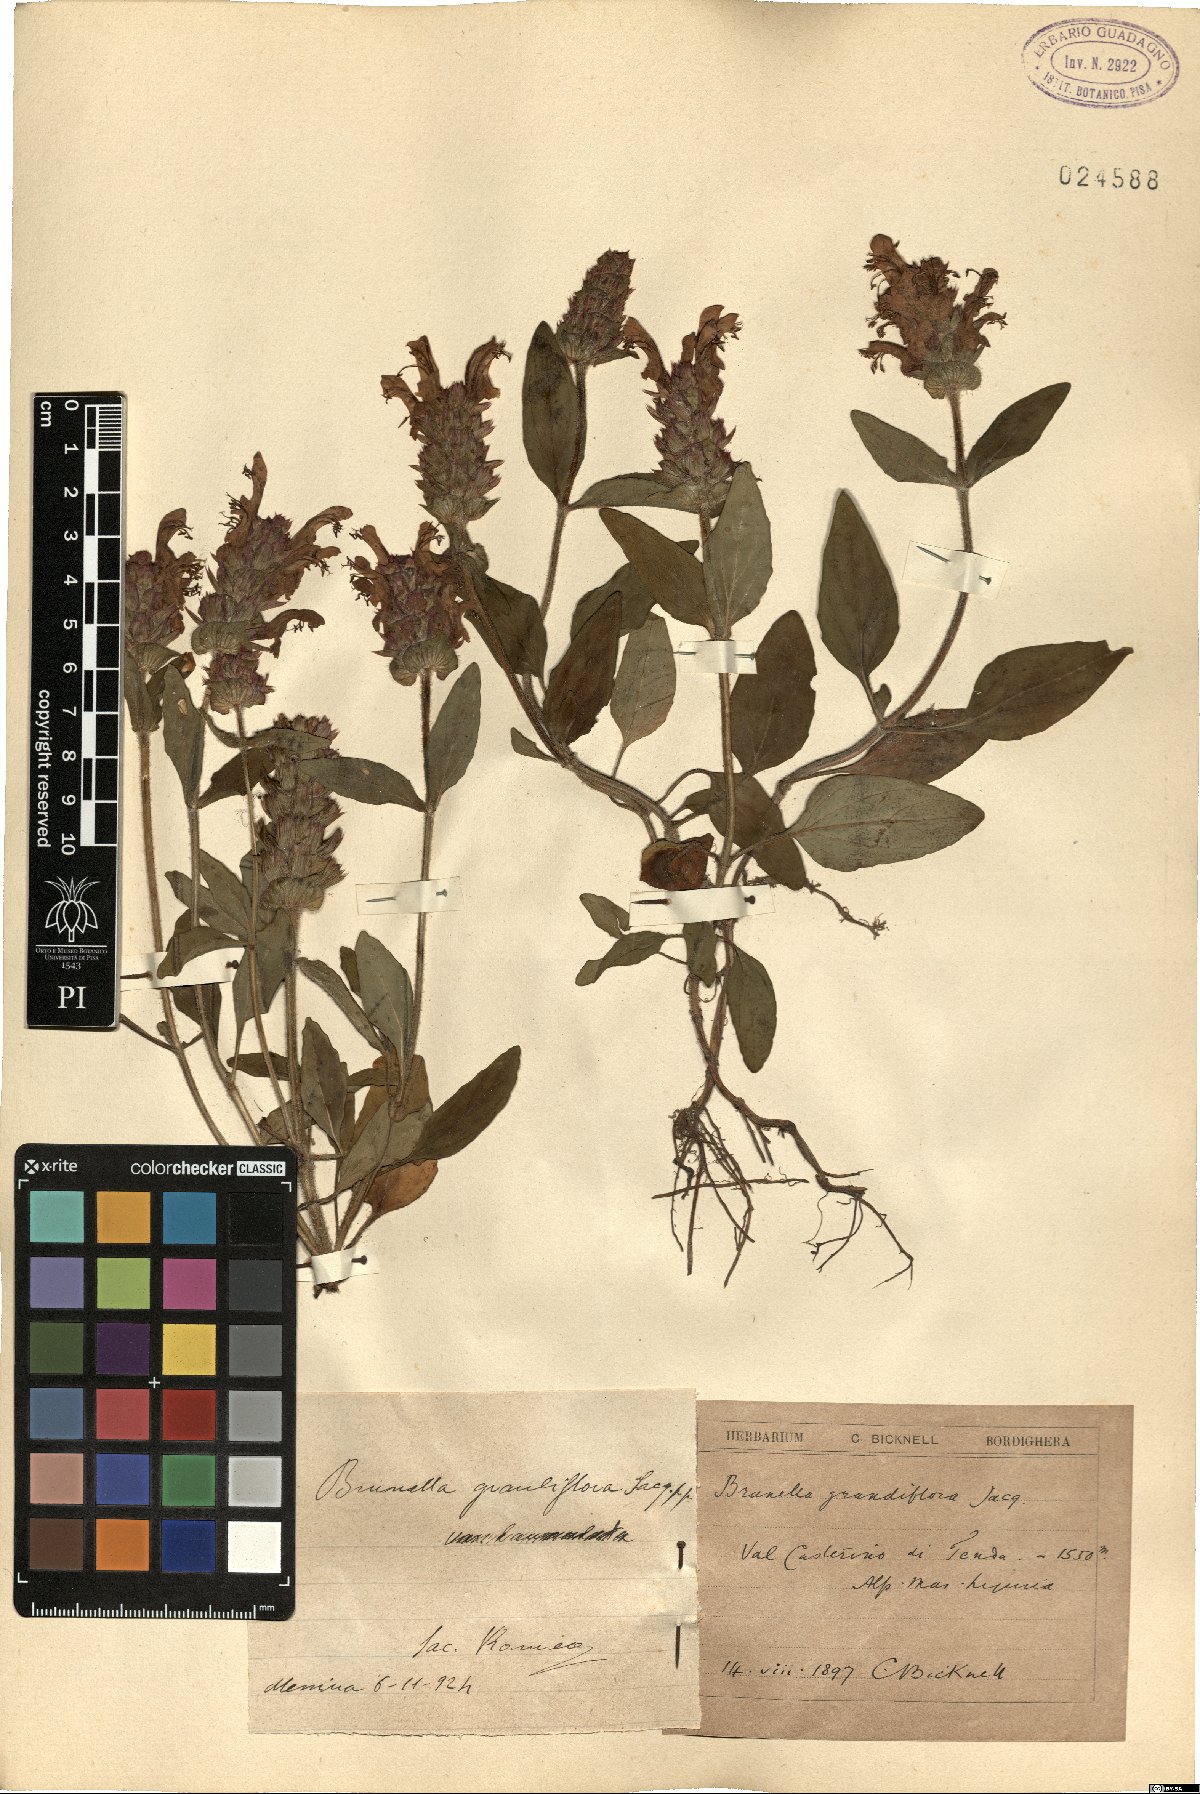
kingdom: Plantae
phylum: Tracheophyta
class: Magnoliopsida
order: Lamiales
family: Lamiaceae
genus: Prunella
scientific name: Prunella grandiflora
